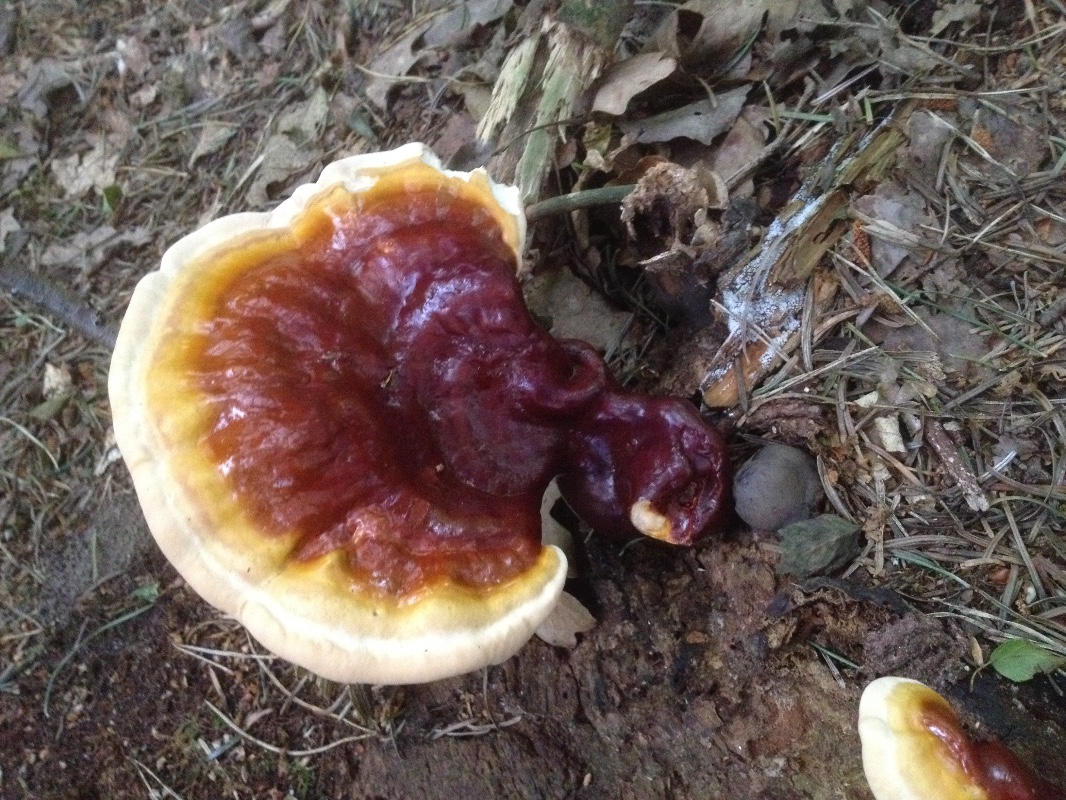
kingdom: Fungi
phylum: Basidiomycota
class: Agaricomycetes
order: Polyporales
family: Polyporaceae
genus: Ganoderma
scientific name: Ganoderma lucidum
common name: skinnende lakporesvamp
